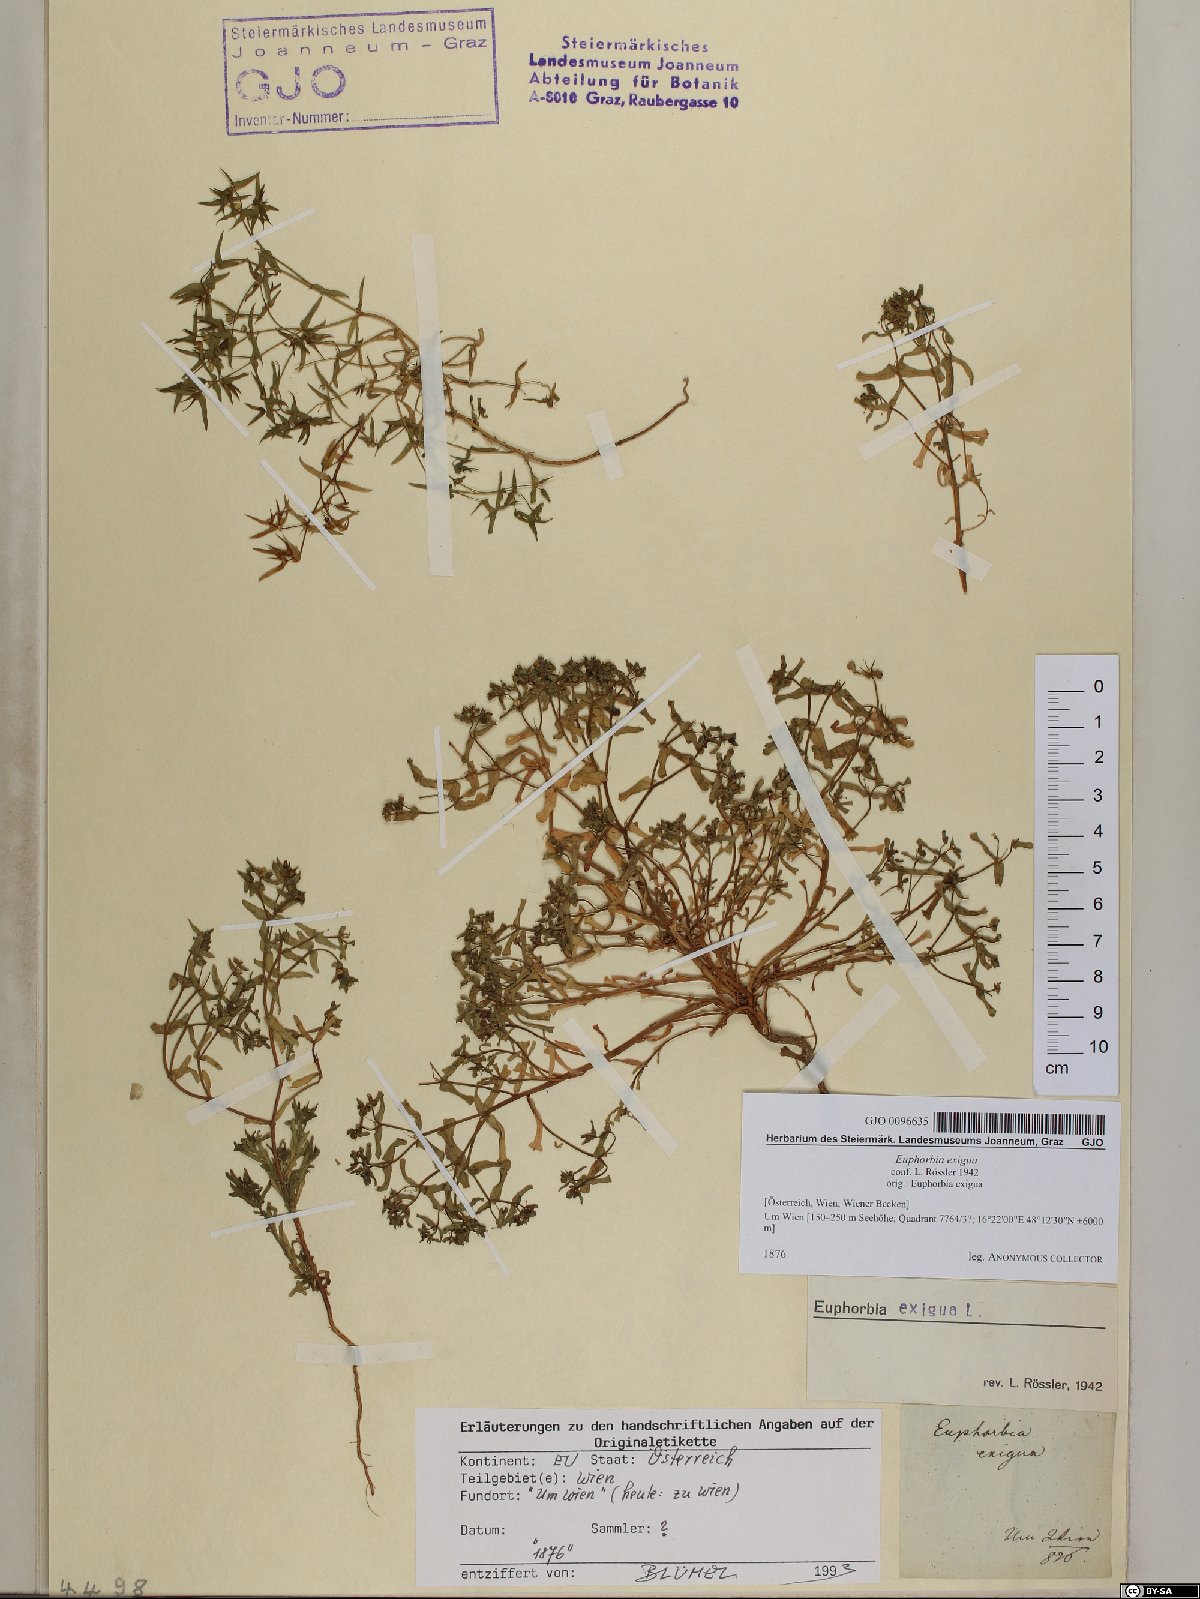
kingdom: Plantae
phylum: Tracheophyta
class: Magnoliopsida
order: Malpighiales
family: Euphorbiaceae
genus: Euphorbia
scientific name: Euphorbia exigua
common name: Dwarf spurge
